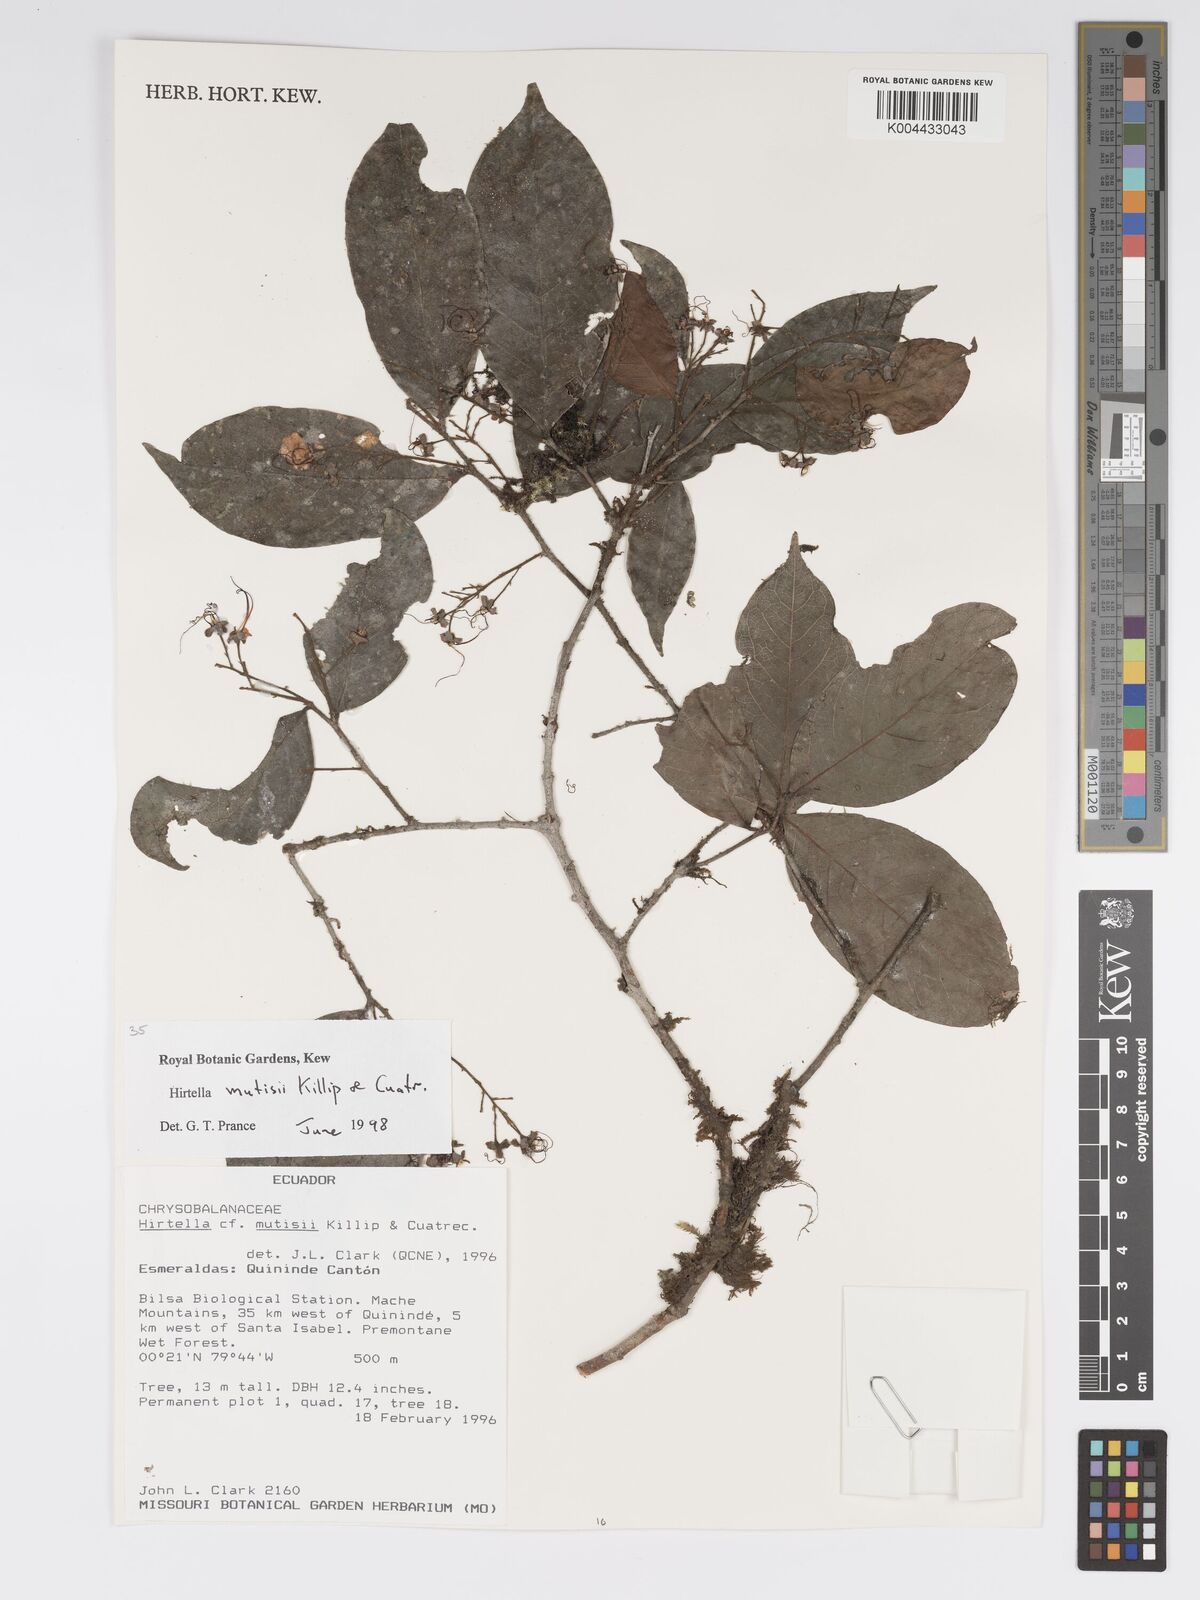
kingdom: Plantae
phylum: Tracheophyta
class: Magnoliopsida
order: Malpighiales
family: Chrysobalanaceae
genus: Hirtella
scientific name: Hirtella mutisii
